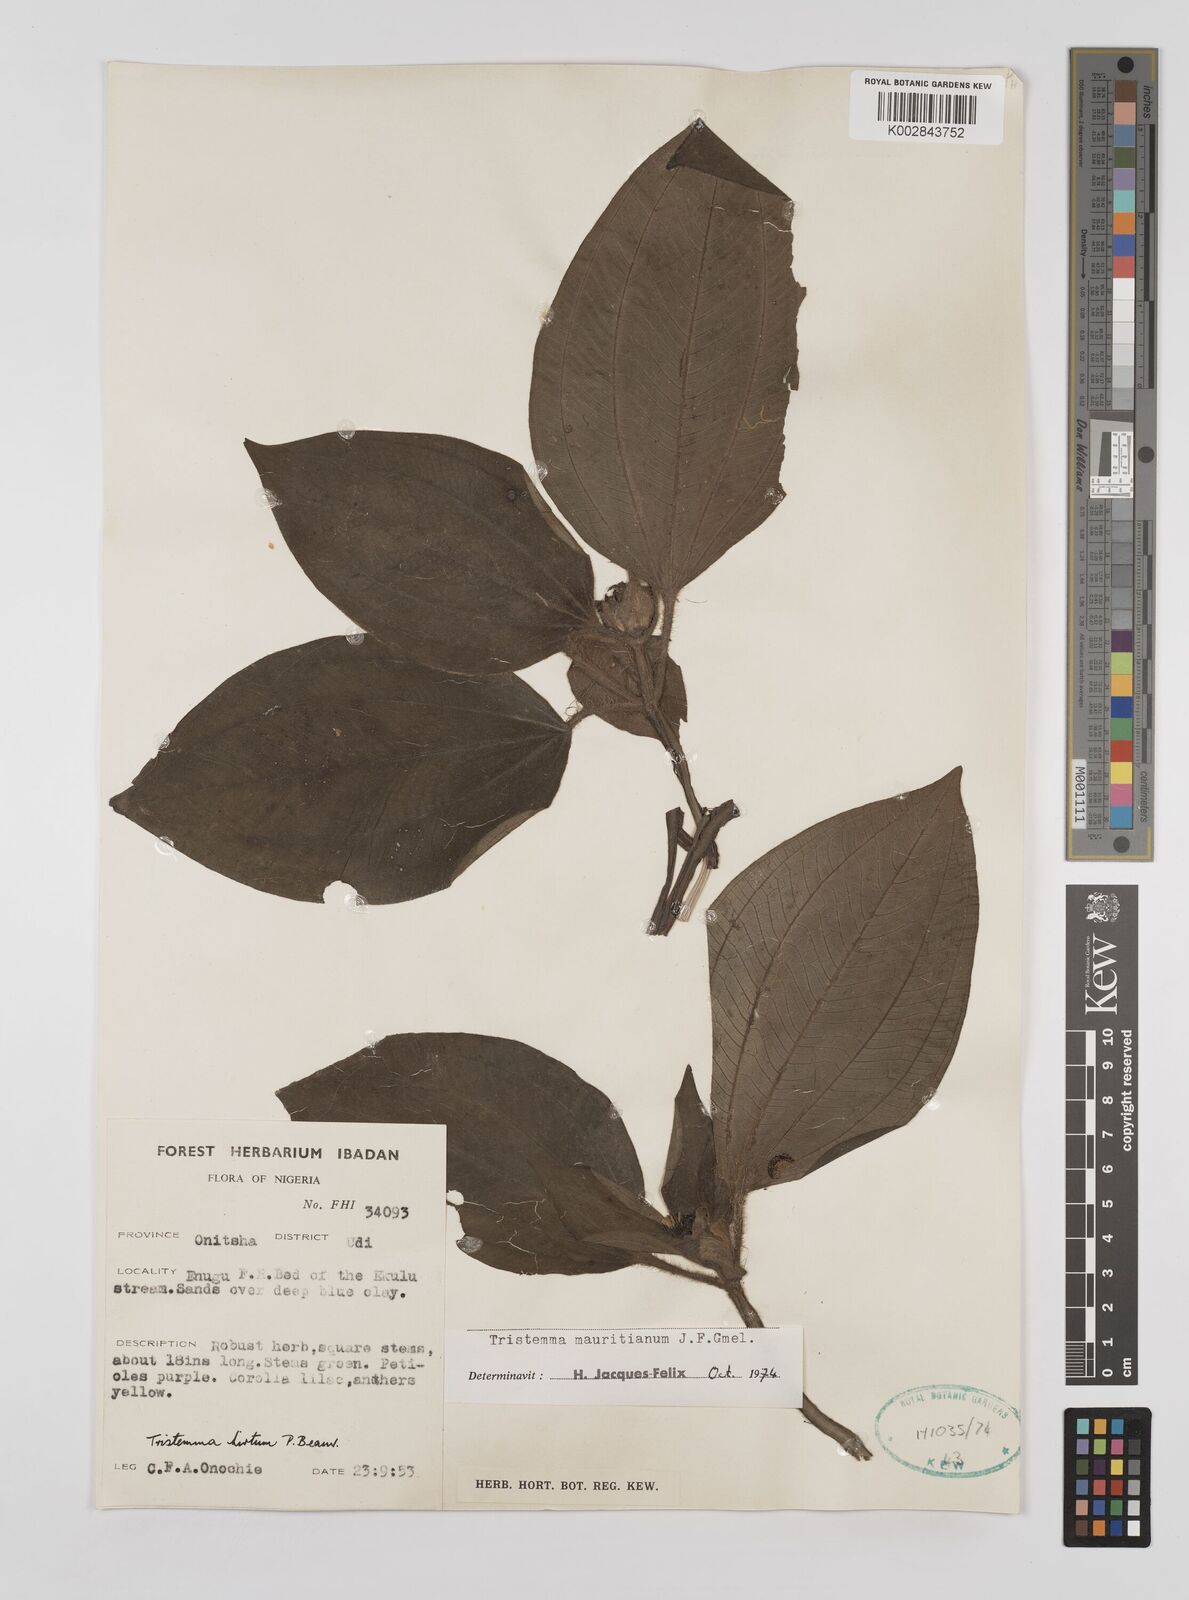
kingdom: Plantae
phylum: Tracheophyta
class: Magnoliopsida
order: Myrtales
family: Melastomataceae
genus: Tristemma
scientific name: Tristemma mauritianum
